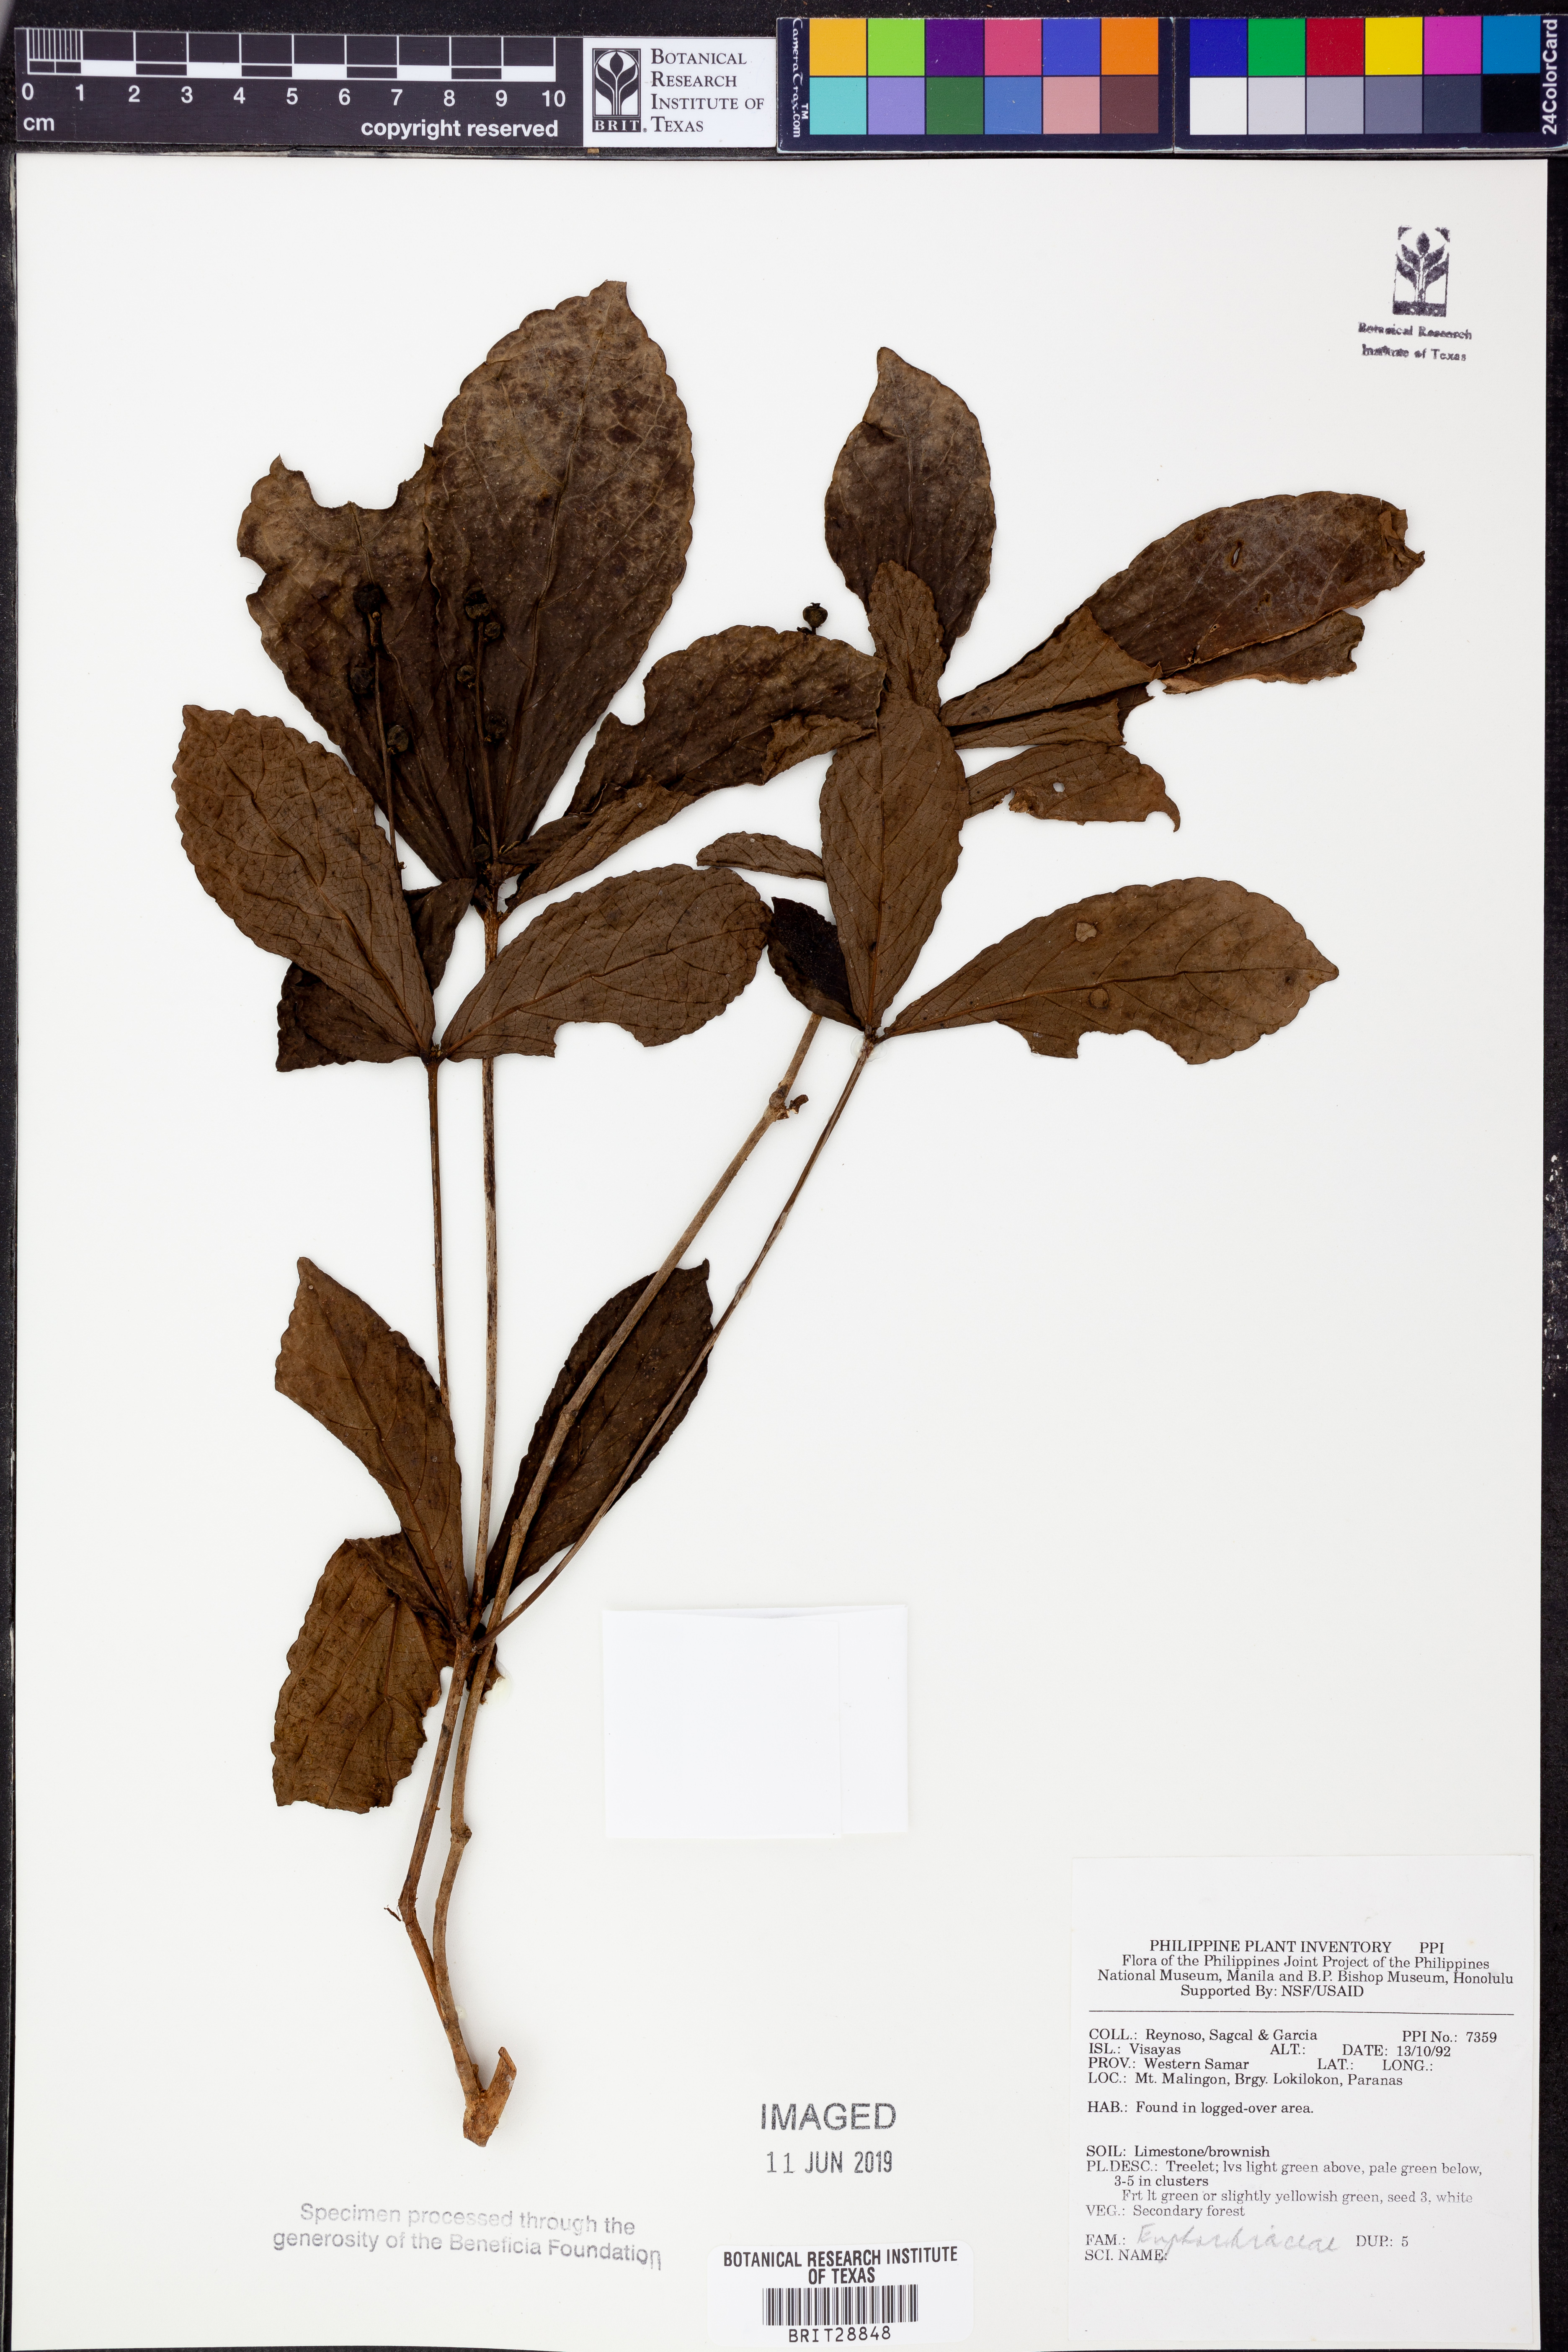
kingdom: Plantae
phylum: Tracheophyta
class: Magnoliopsida
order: Malpighiales
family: Euphorbiaceae
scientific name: Euphorbiaceae
